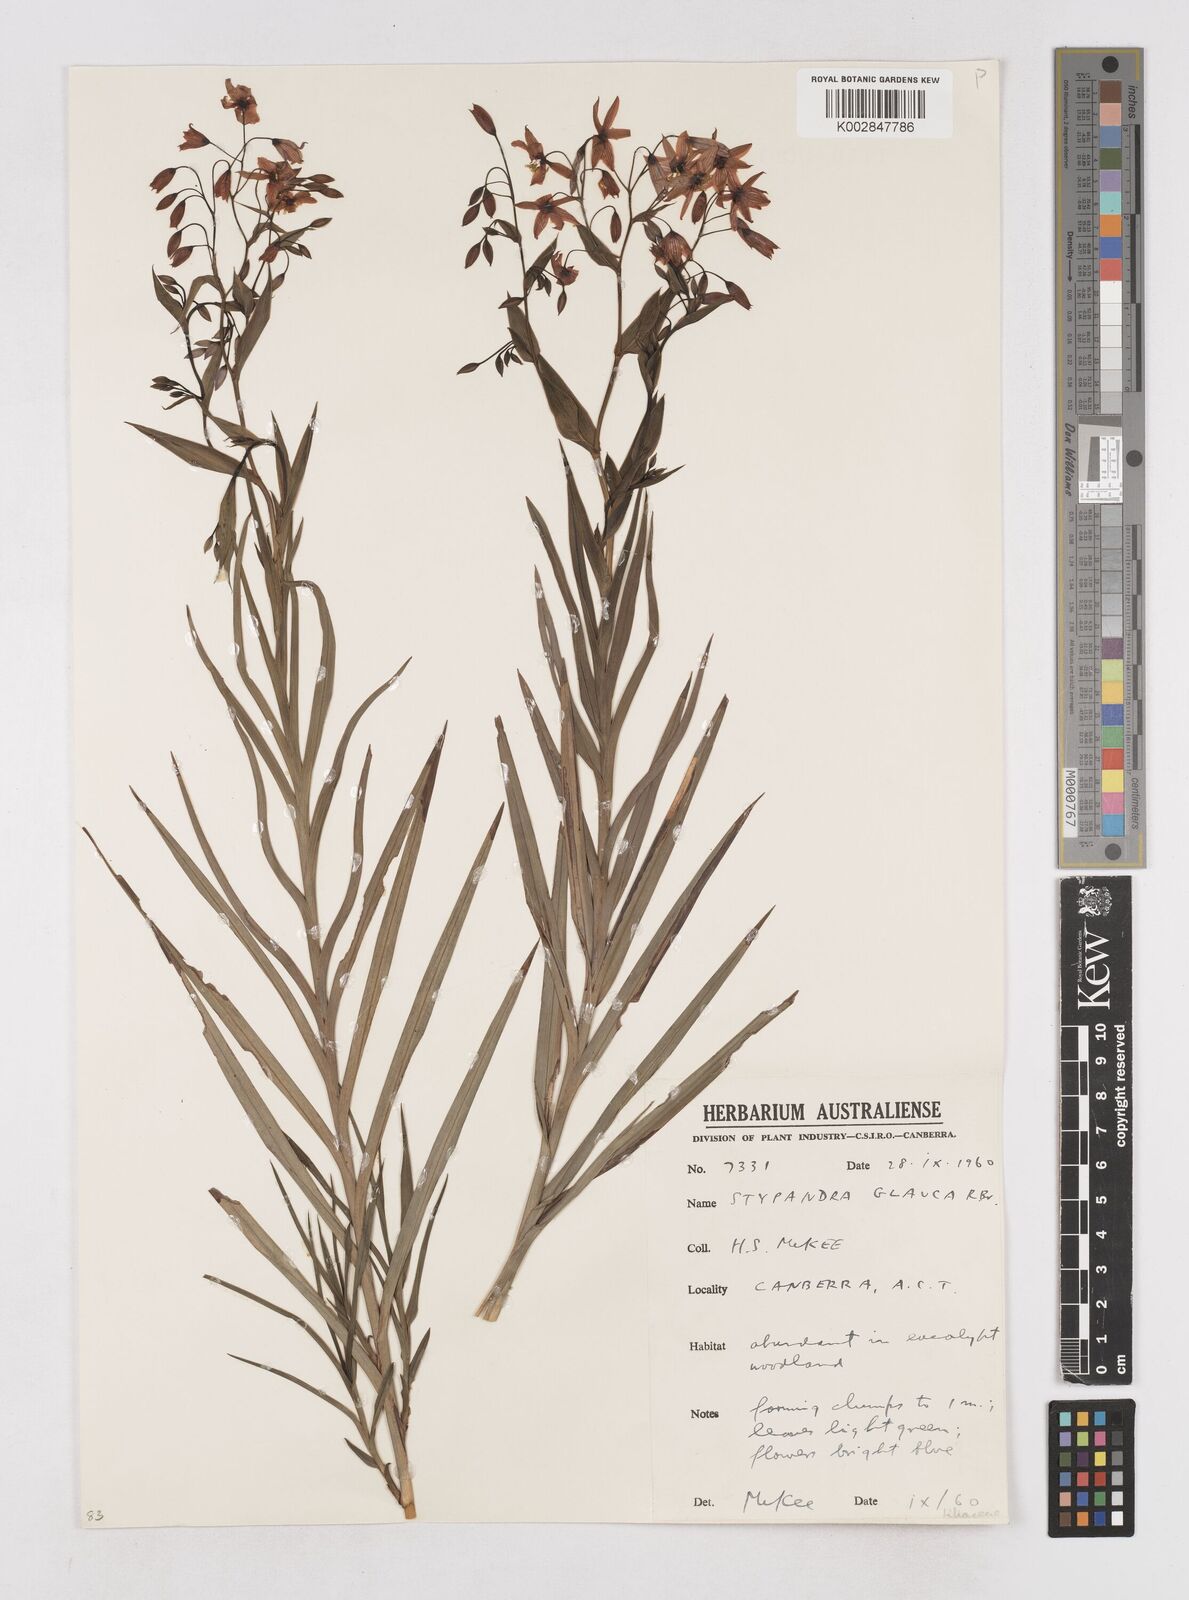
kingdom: Plantae
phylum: Tracheophyta
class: Liliopsida
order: Asparagales
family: Asphodelaceae
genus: Stypandra
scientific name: Stypandra glauca
